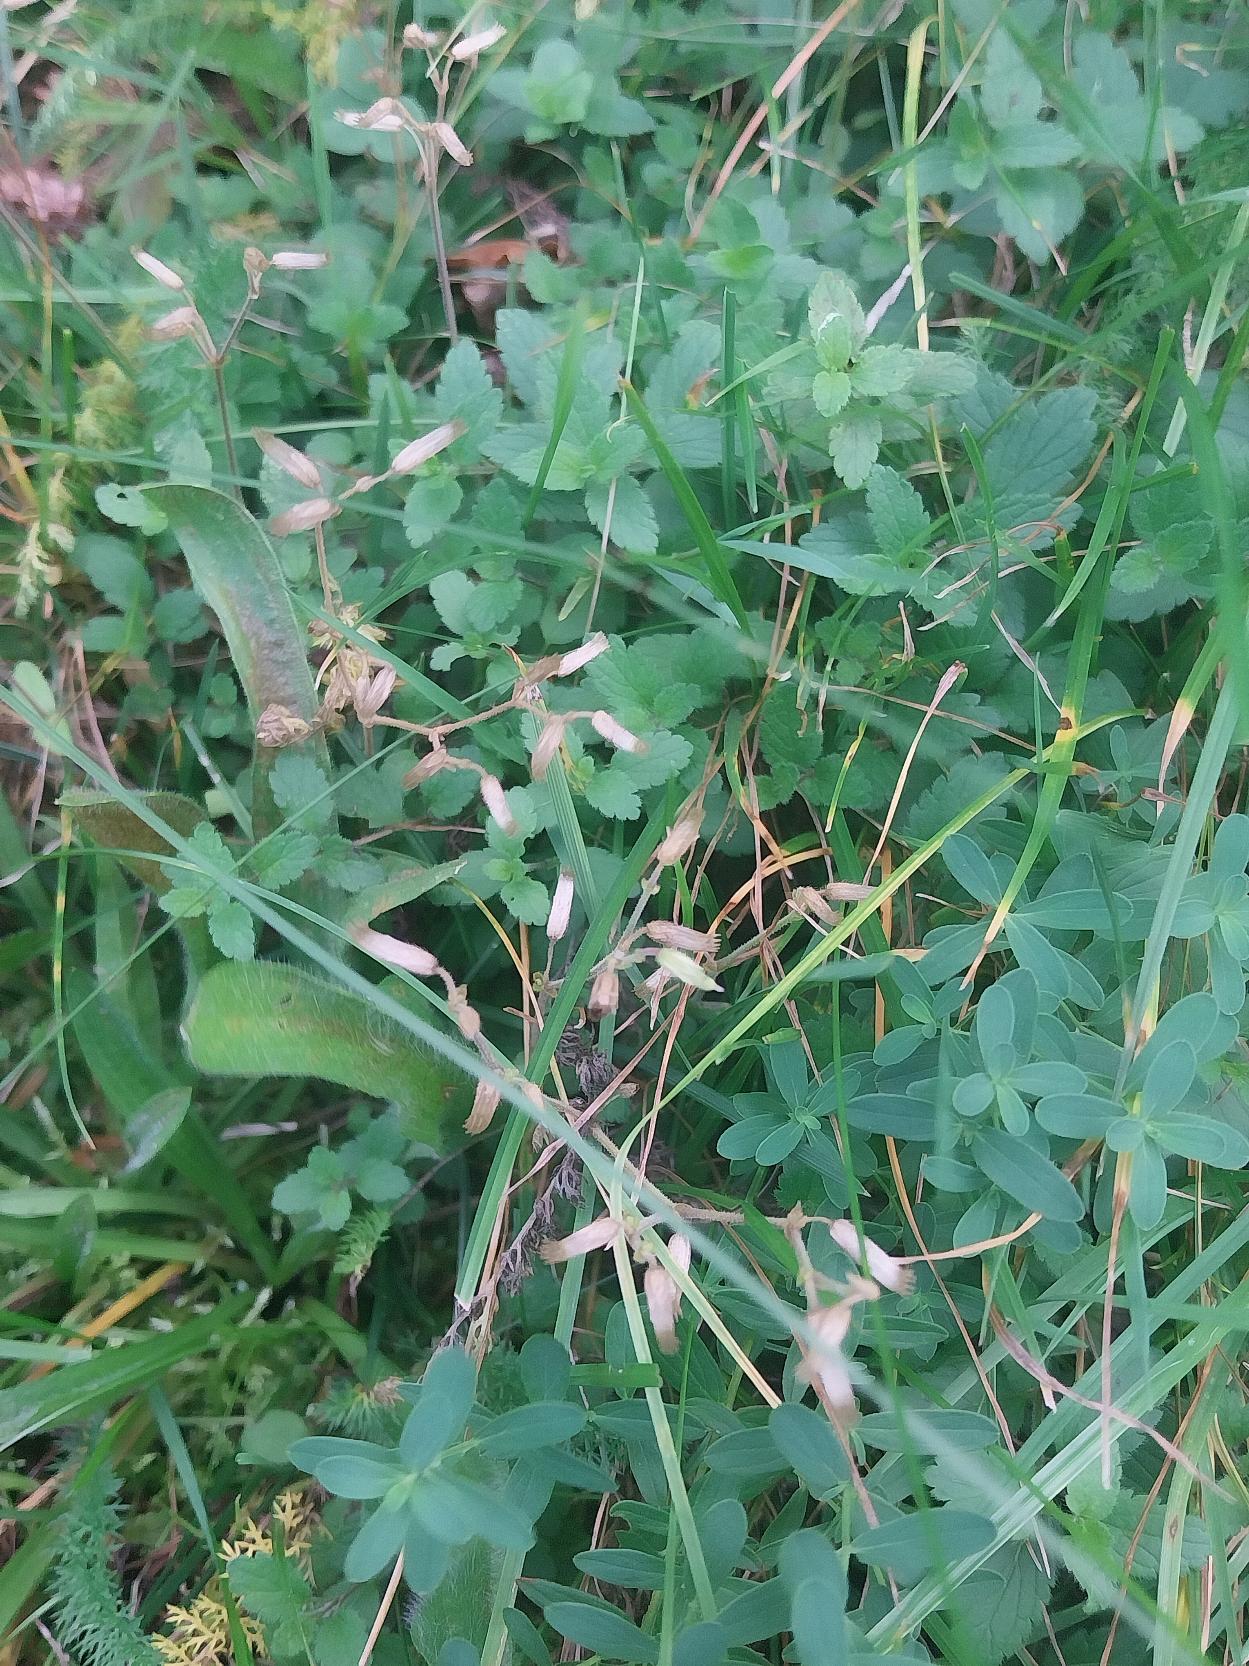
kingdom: Plantae
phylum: Tracheophyta
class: Magnoliopsida
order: Caryophyllales
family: Caryophyllaceae
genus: Cerastium
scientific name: Cerastium fontanum
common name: Almindelig hønsetarm
